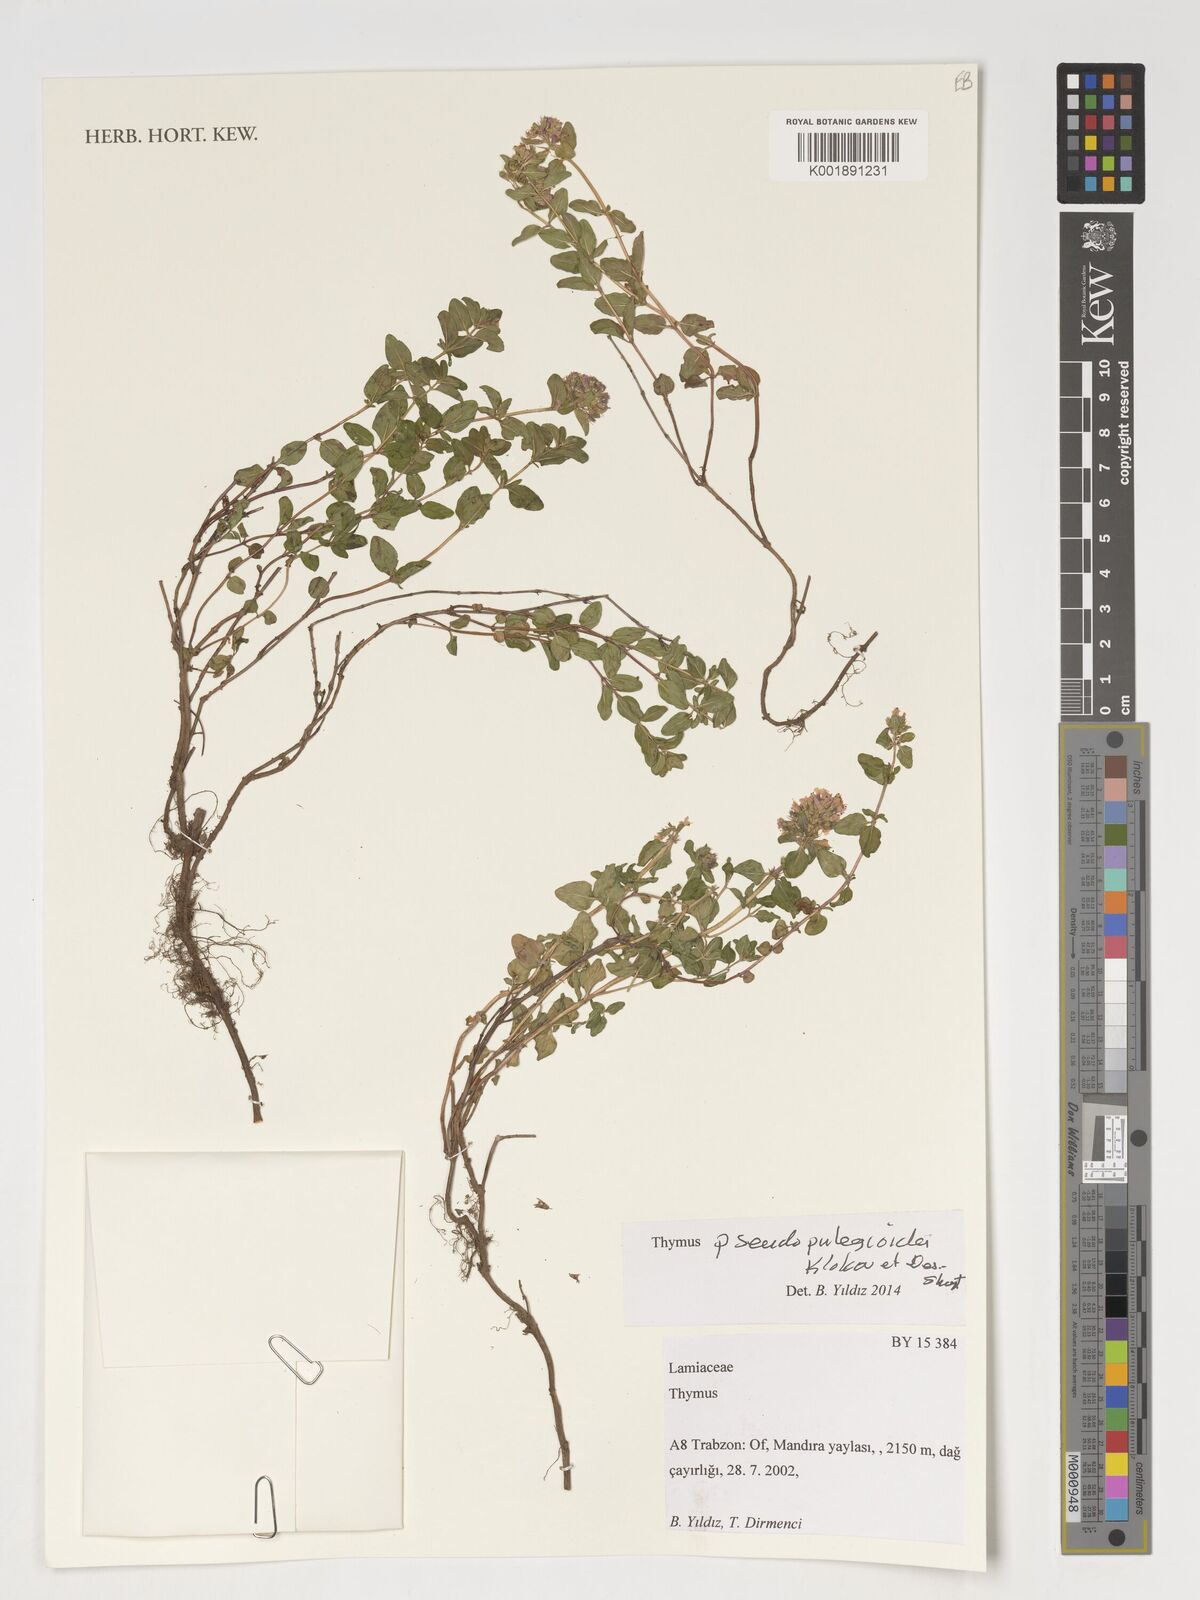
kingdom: Plantae
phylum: Tracheophyta
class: Magnoliopsida
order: Lamiales
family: Lamiaceae
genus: Thymus
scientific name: Thymus nummularius
